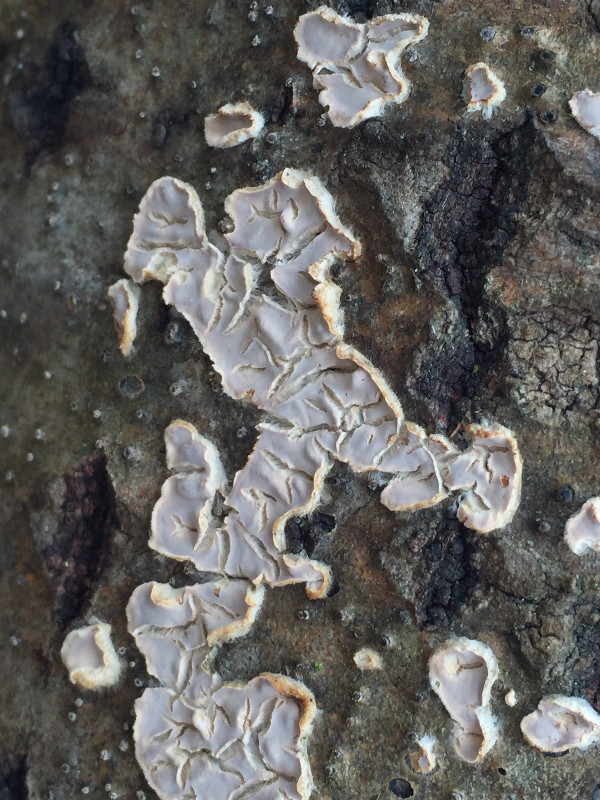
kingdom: Fungi
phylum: Basidiomycota
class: Agaricomycetes
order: Agaricales
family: Physalacriaceae
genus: Cylindrobasidium
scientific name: Cylindrobasidium evolvens
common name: sprækkehinde
